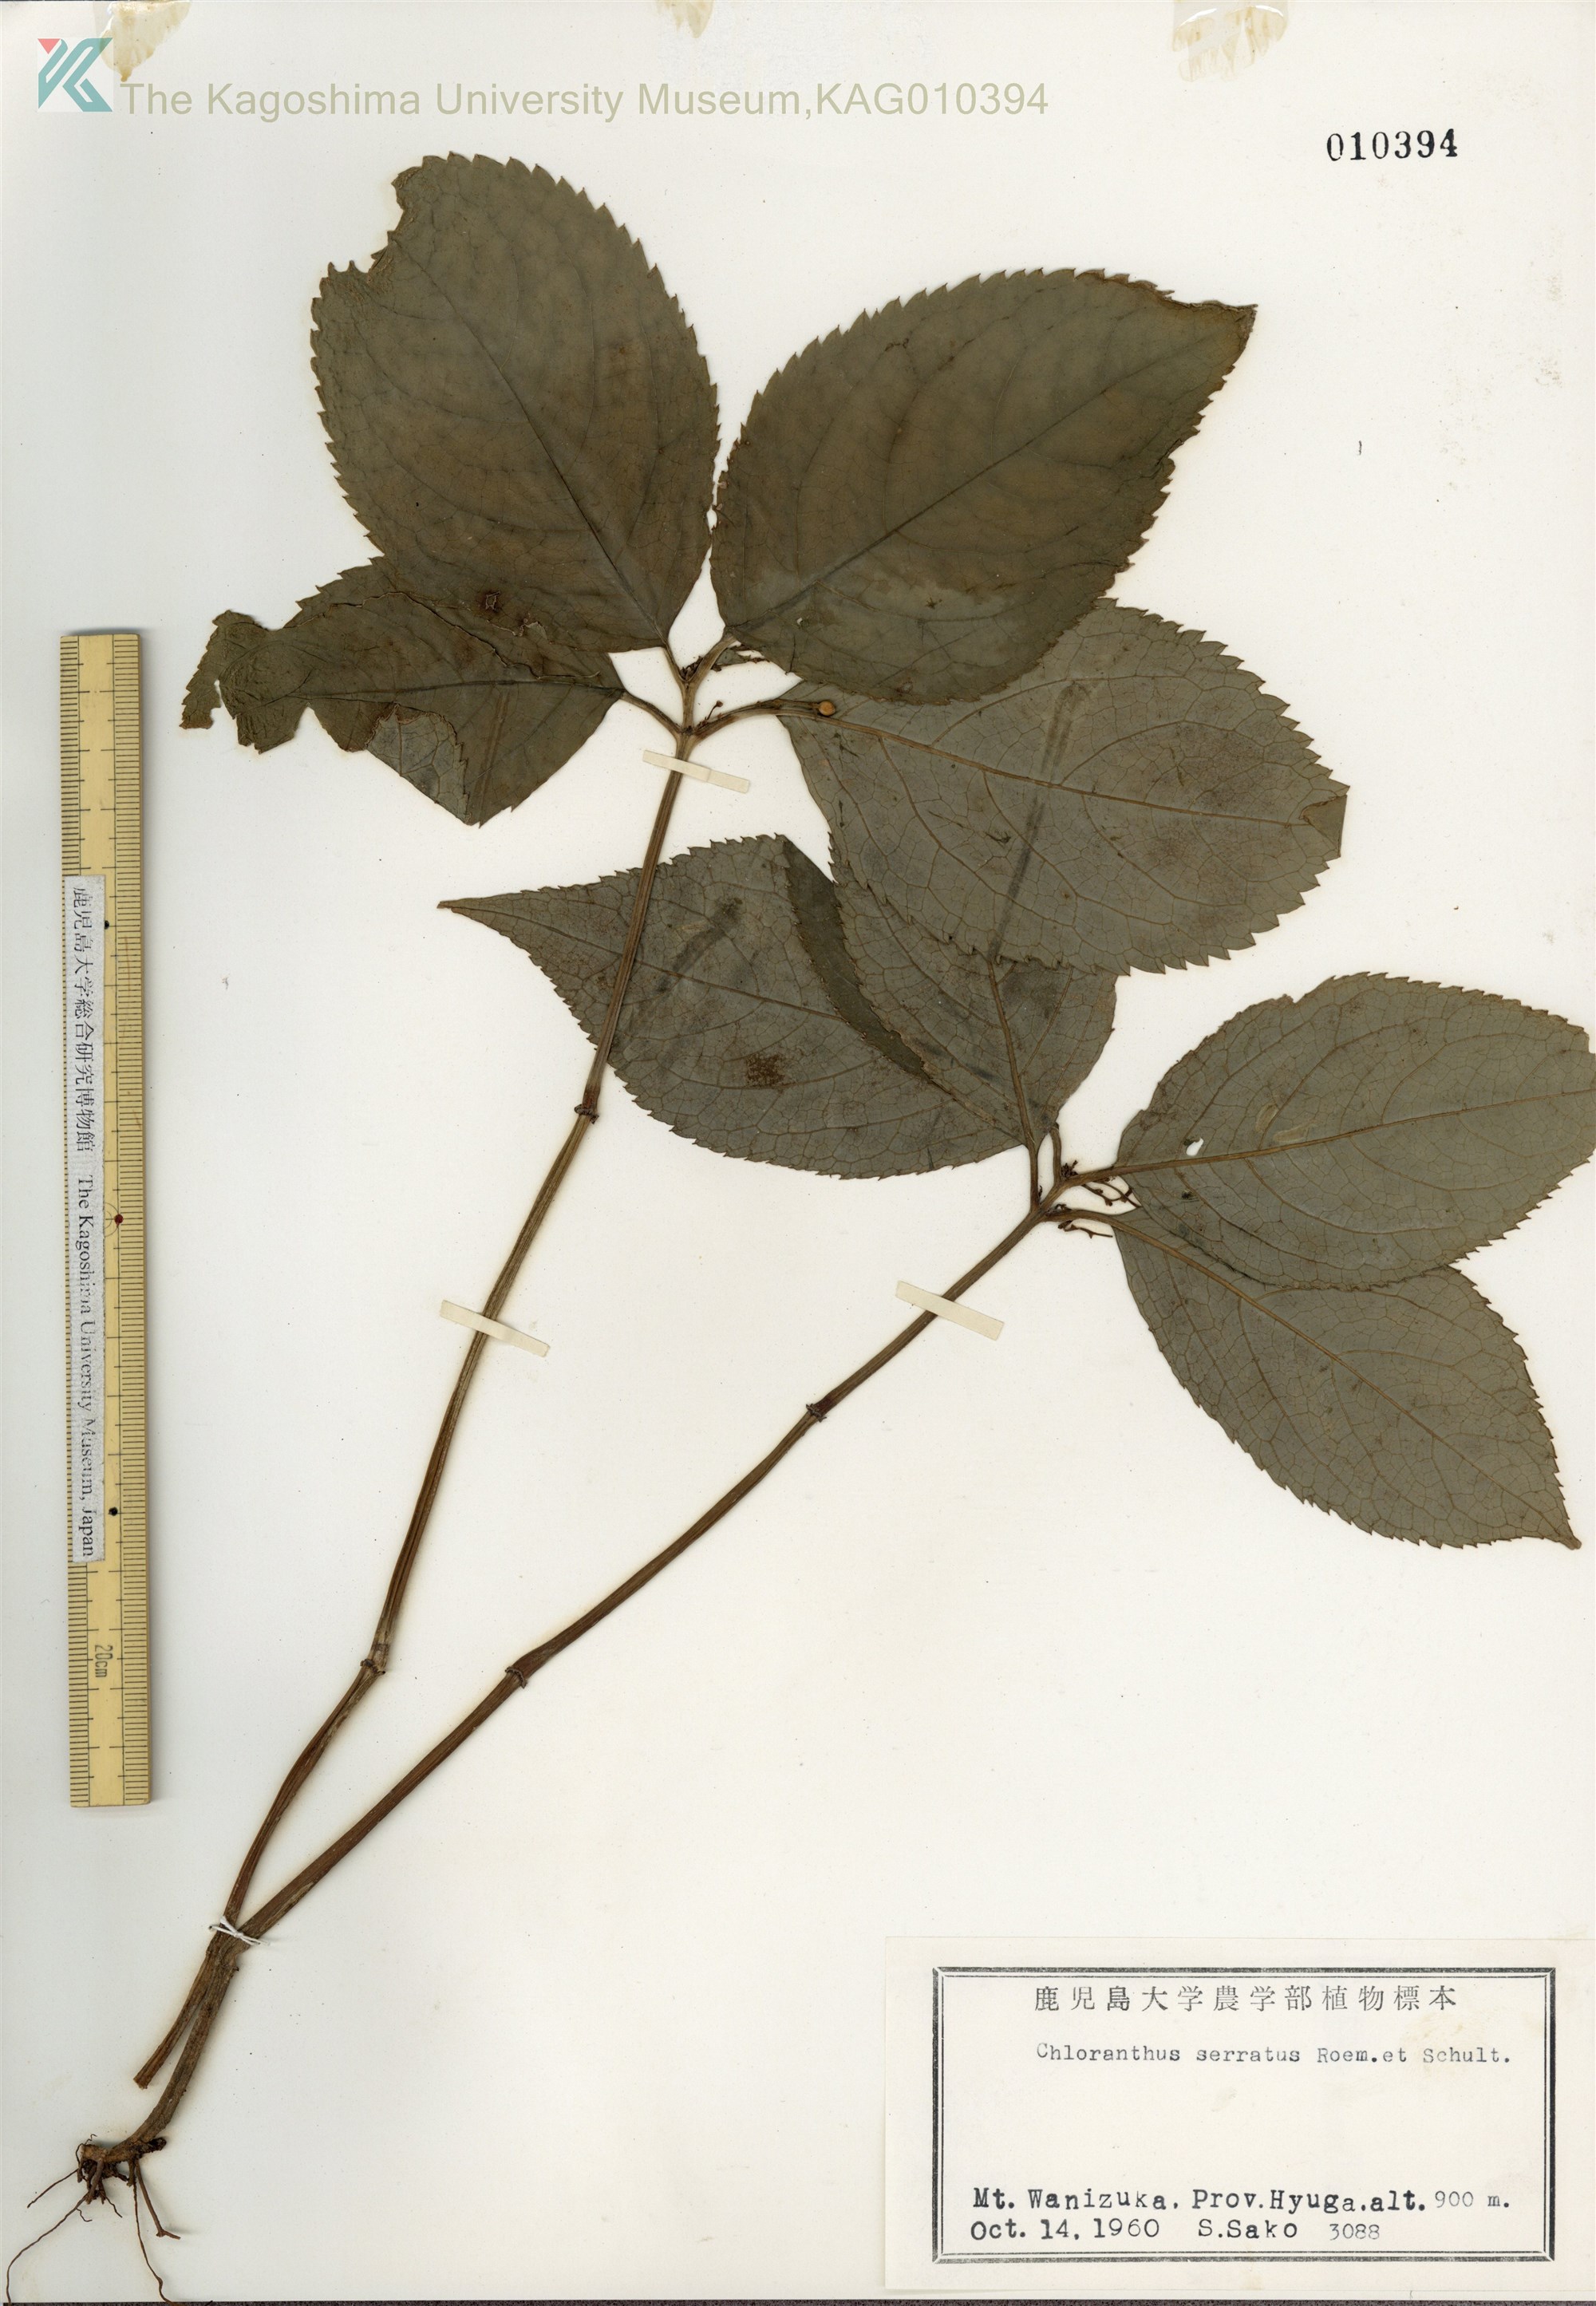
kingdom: Plantae
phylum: Tracheophyta
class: Magnoliopsida
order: Chloranthales
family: Chloranthaceae
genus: Chloranthus
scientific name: Chloranthus serratus
